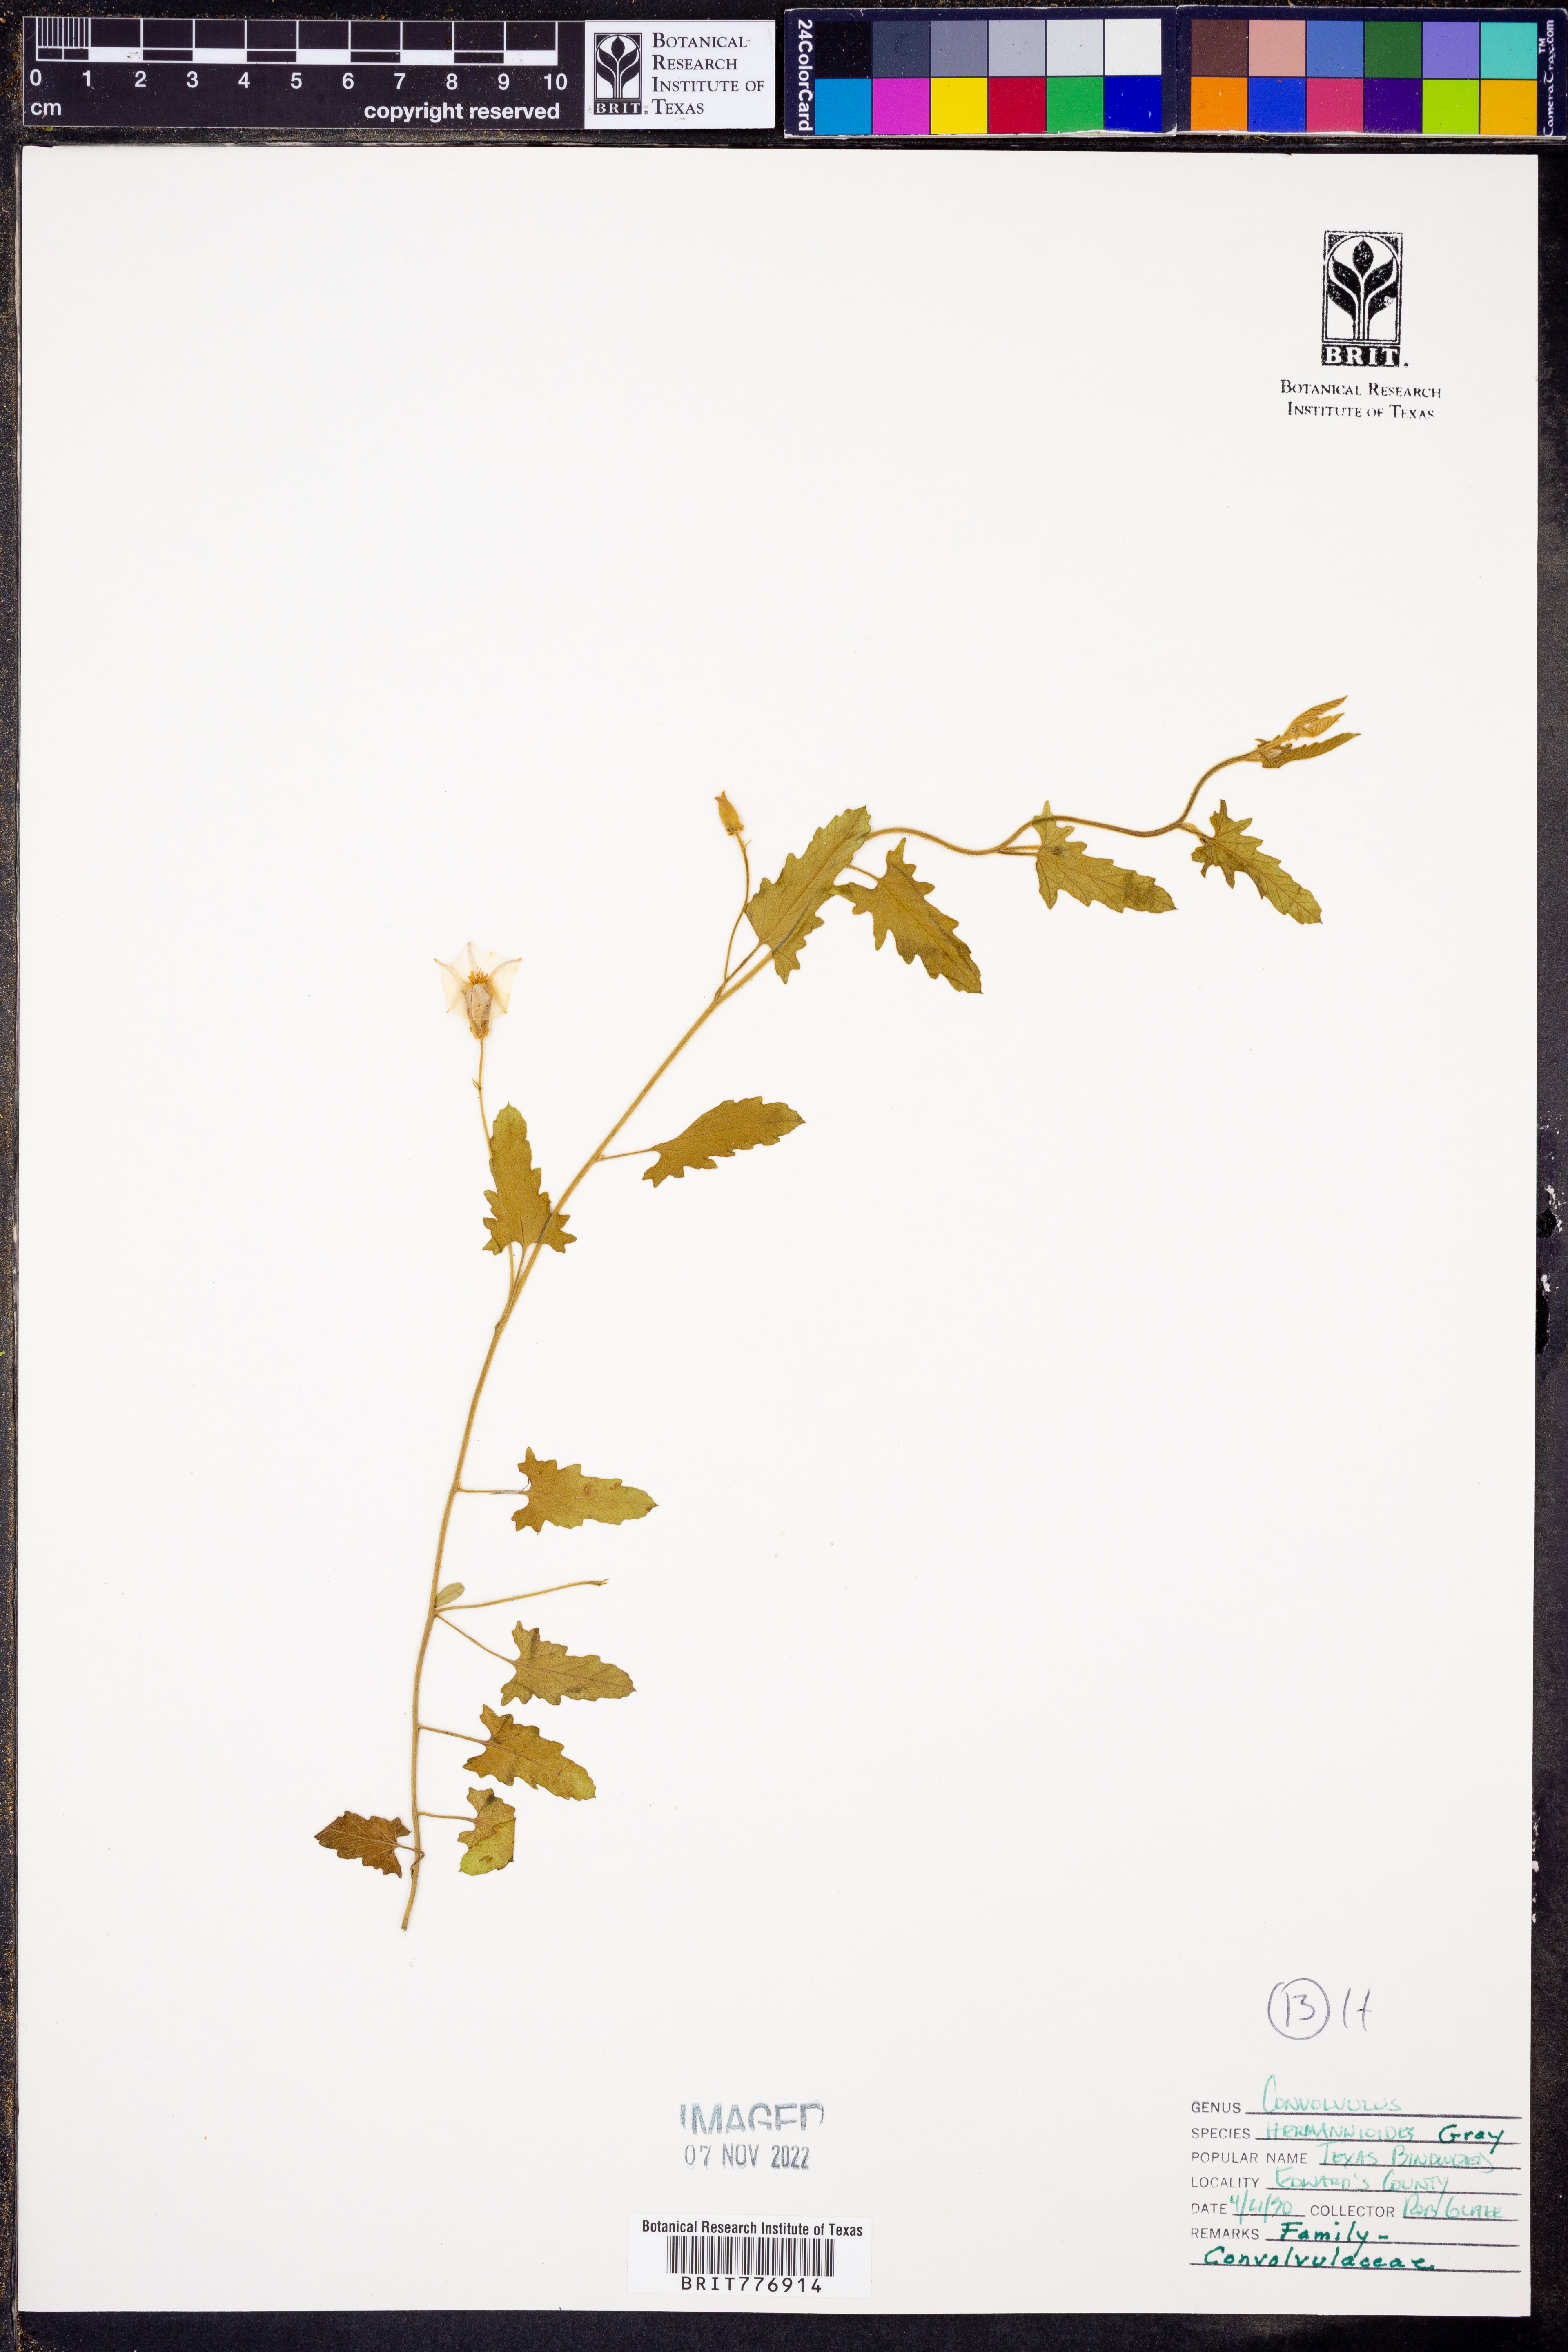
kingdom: Plantae
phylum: Tracheophyta
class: Magnoliopsida
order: Solanales
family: Convolvulaceae
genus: Convolvulus
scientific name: Convolvulus equitans
